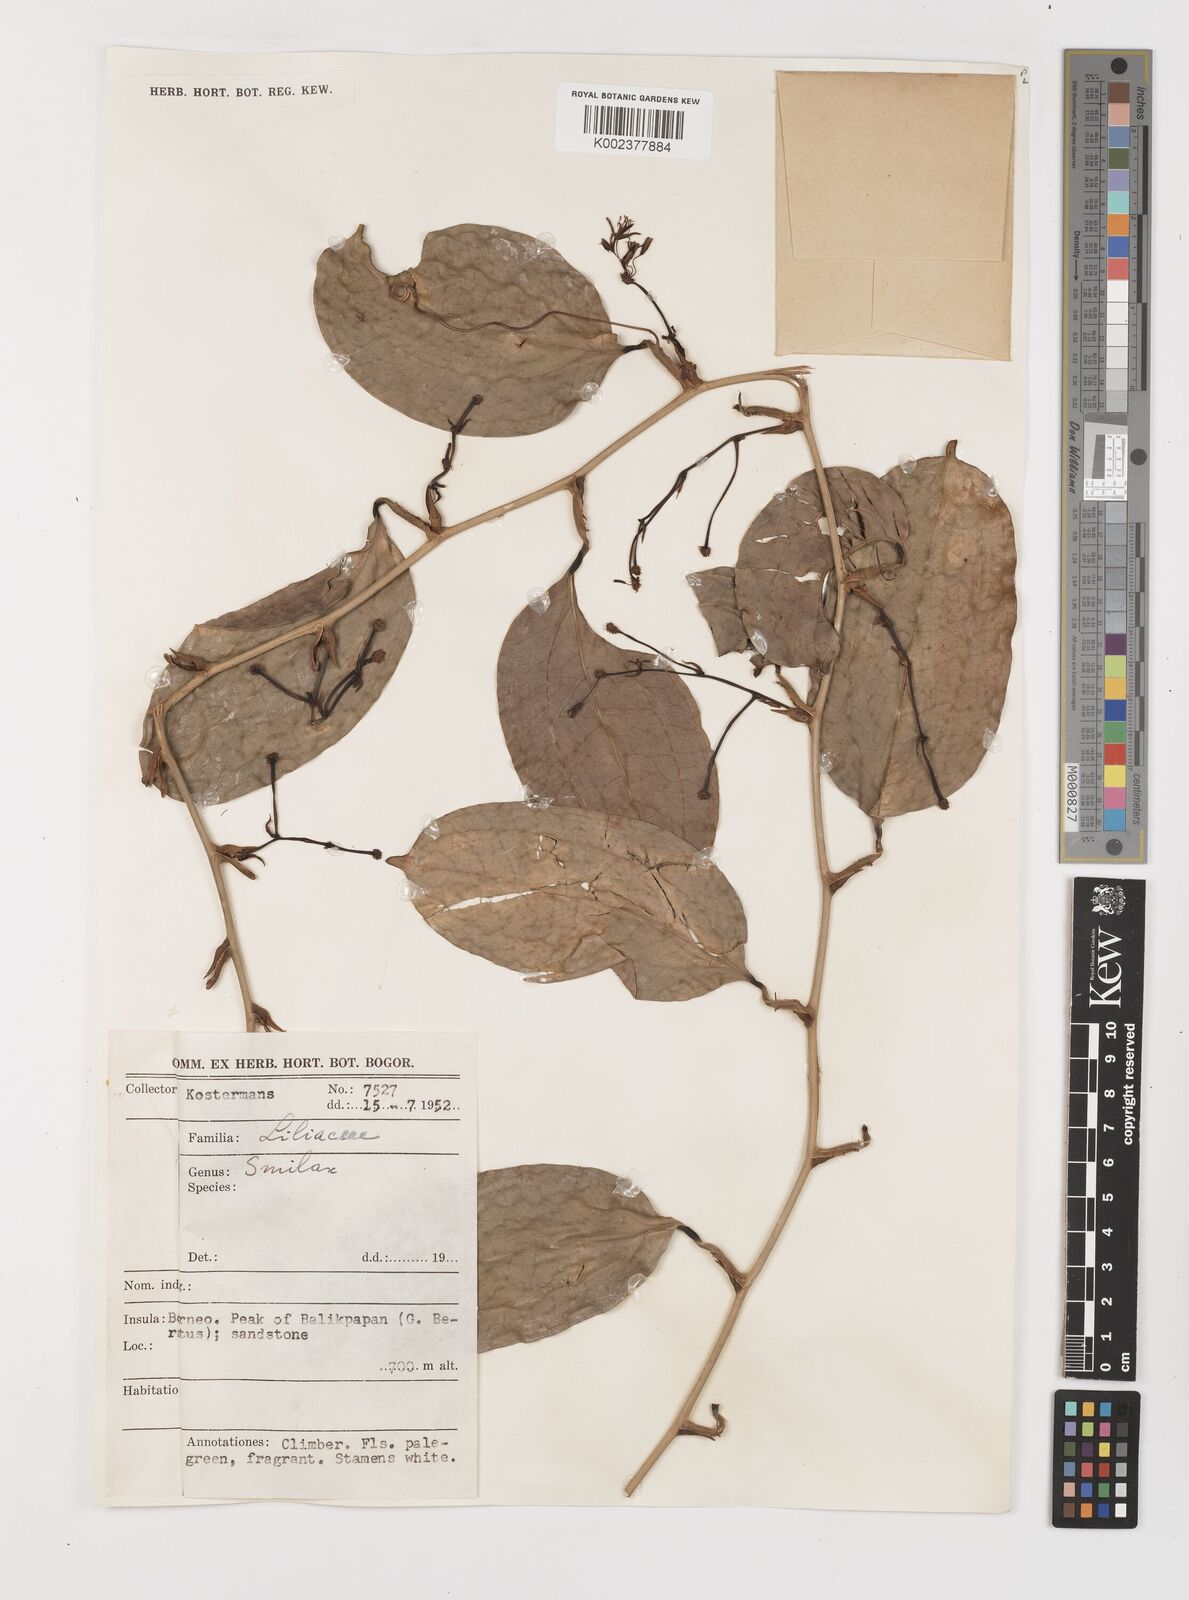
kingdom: Plantae
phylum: Tracheophyta
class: Liliopsida
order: Liliales
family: Smilacaceae
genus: Smilax
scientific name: Smilax
